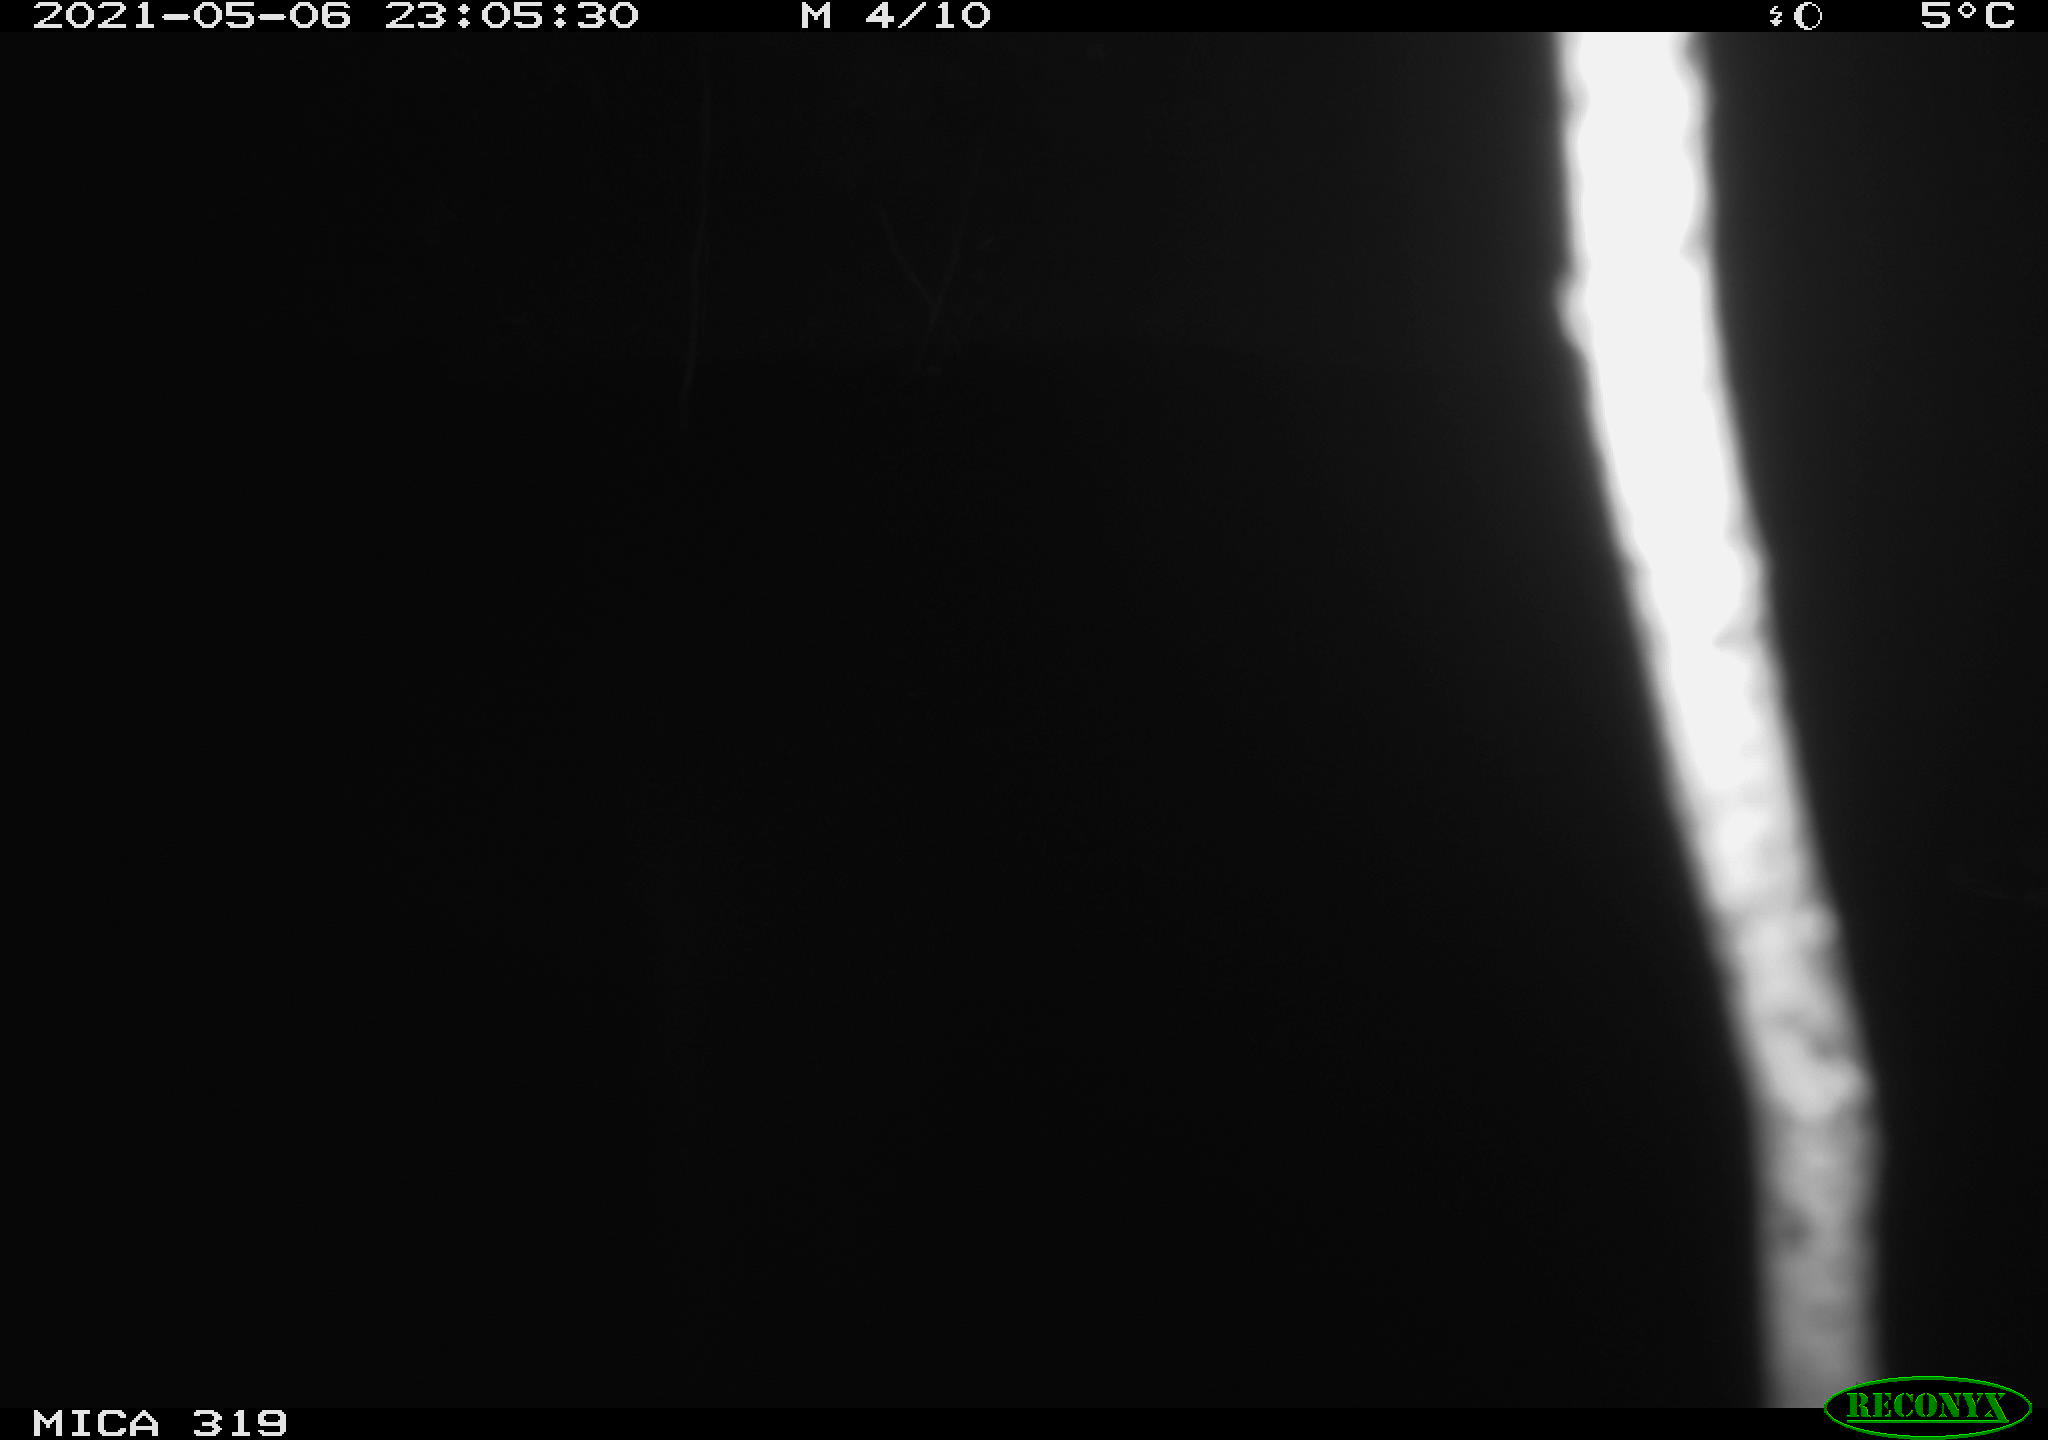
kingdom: Animalia
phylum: Chordata
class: Aves
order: Anseriformes
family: Anatidae
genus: Anas
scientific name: Anas platyrhynchos
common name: Mallard
